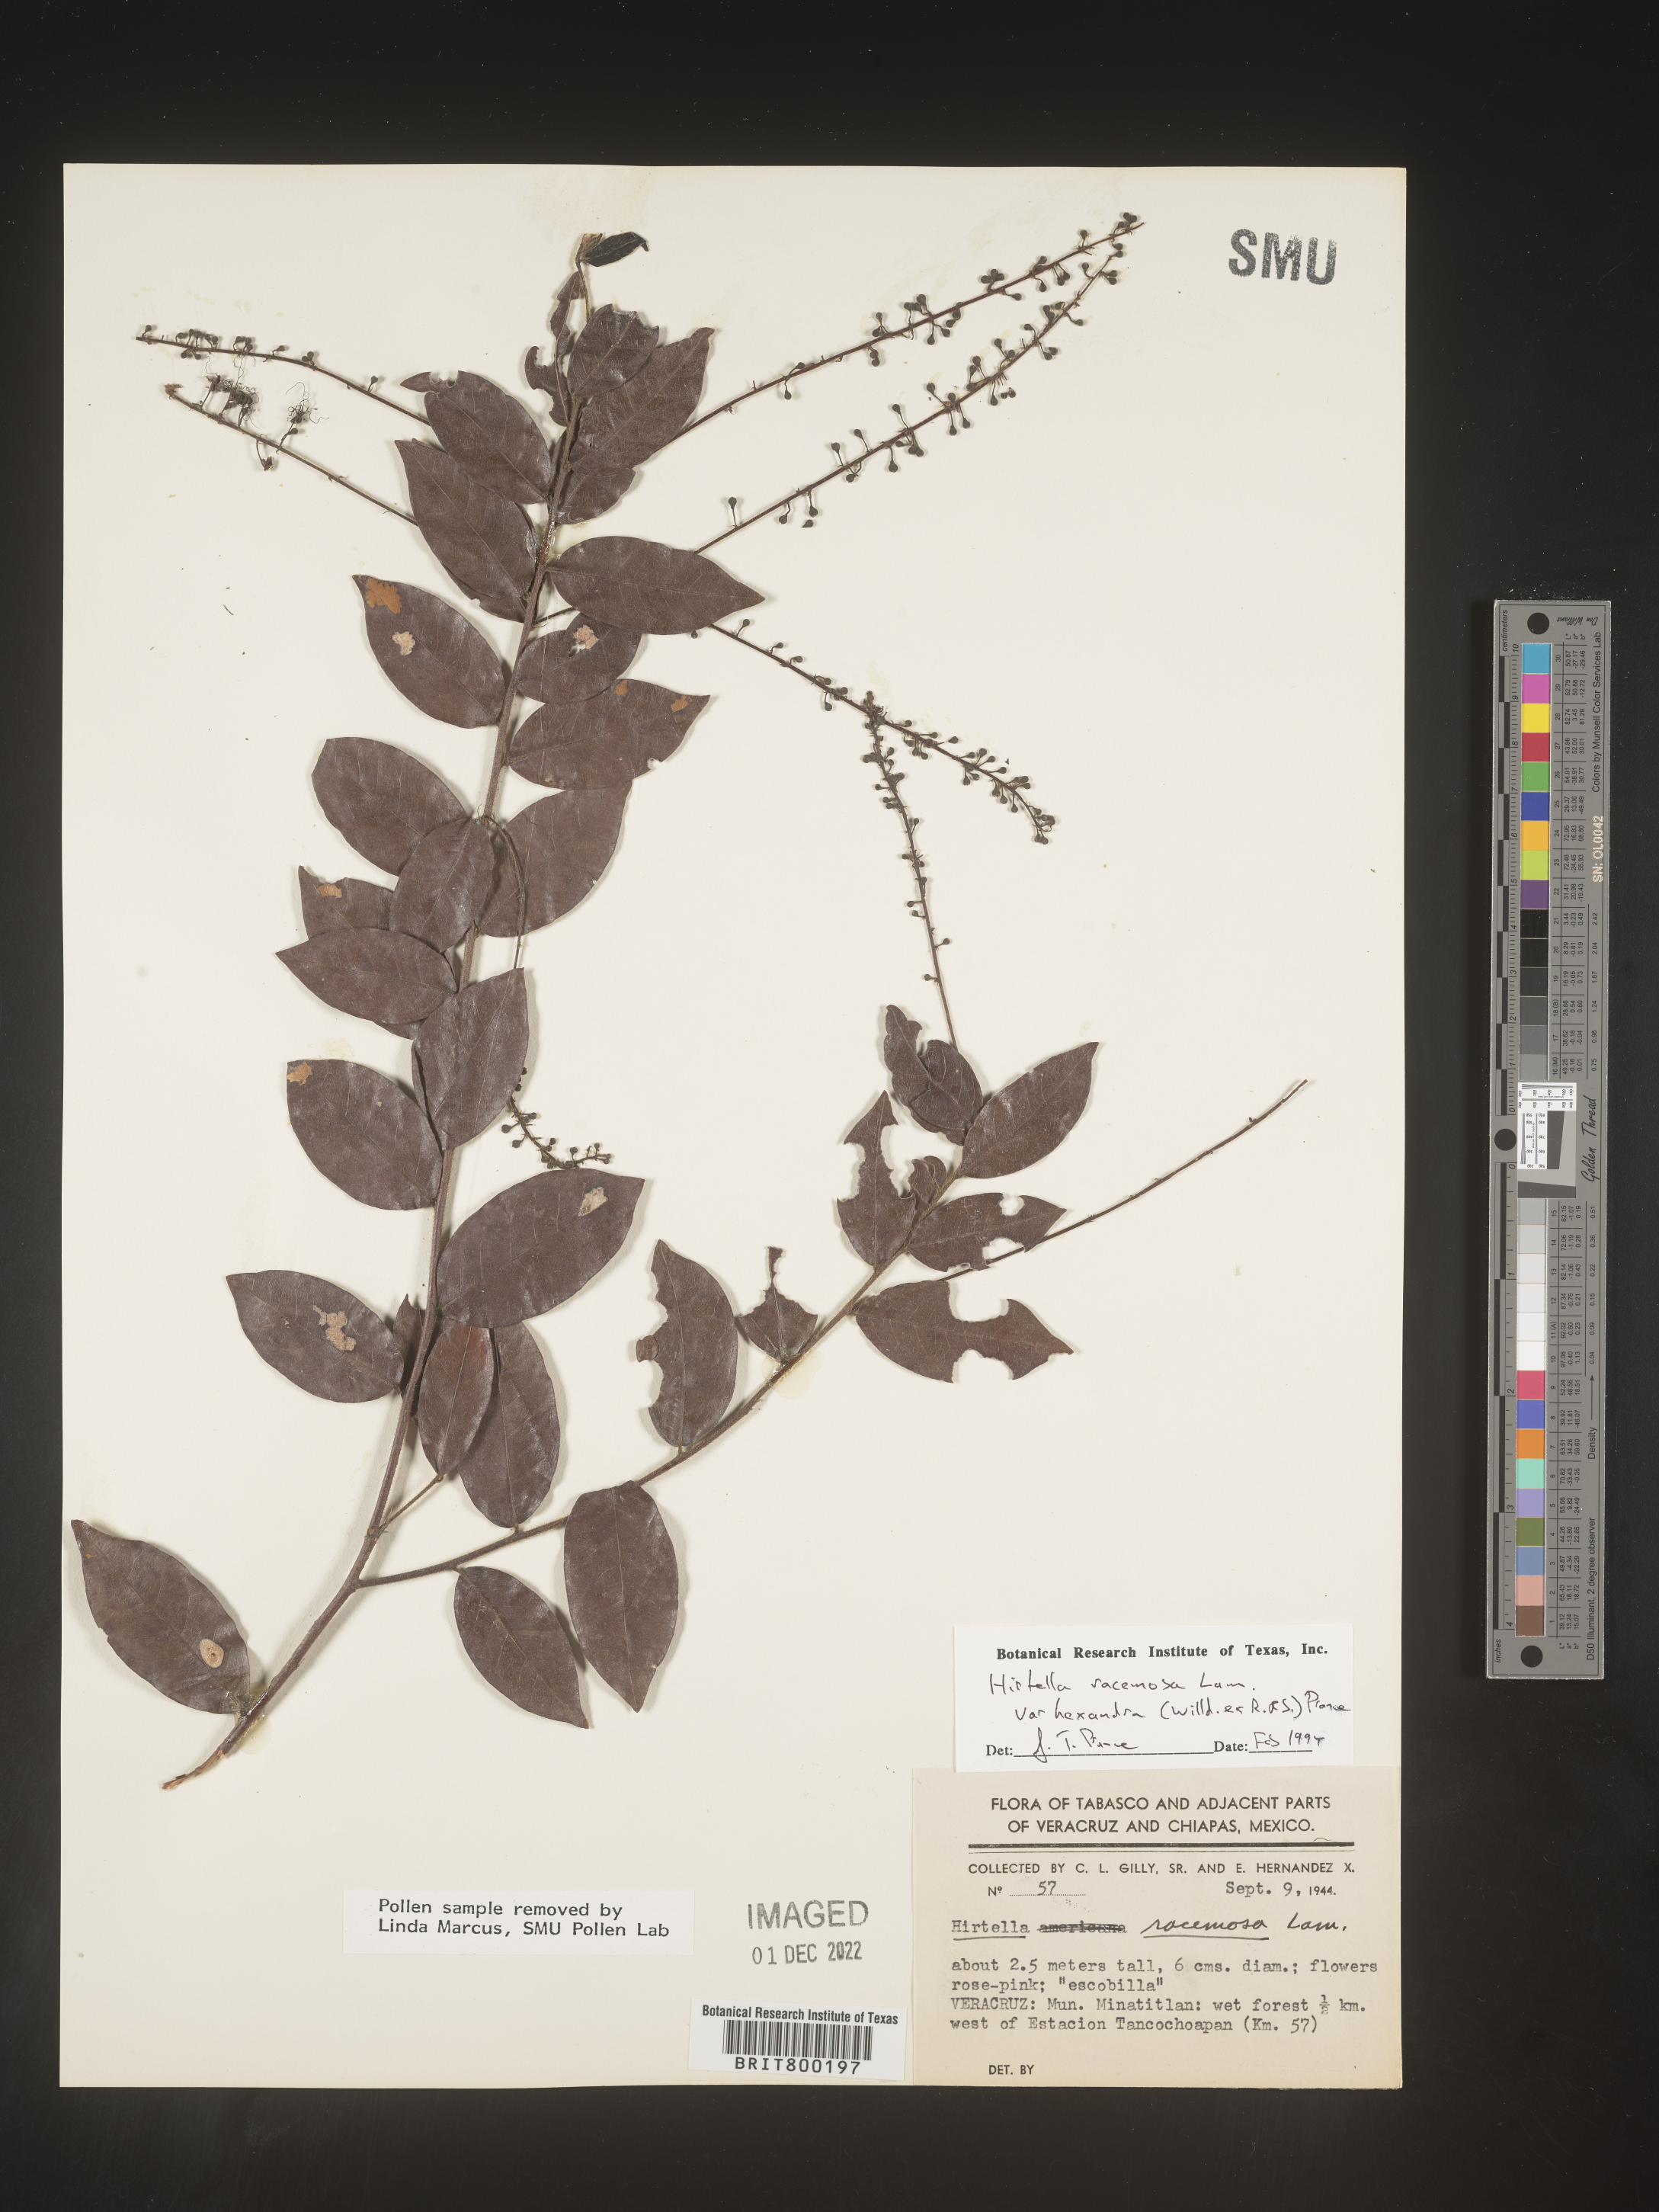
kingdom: Plantae
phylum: Tracheophyta
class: Magnoliopsida
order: Malpighiales
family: Chrysobalanaceae
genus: Hirtella
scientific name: Hirtella
